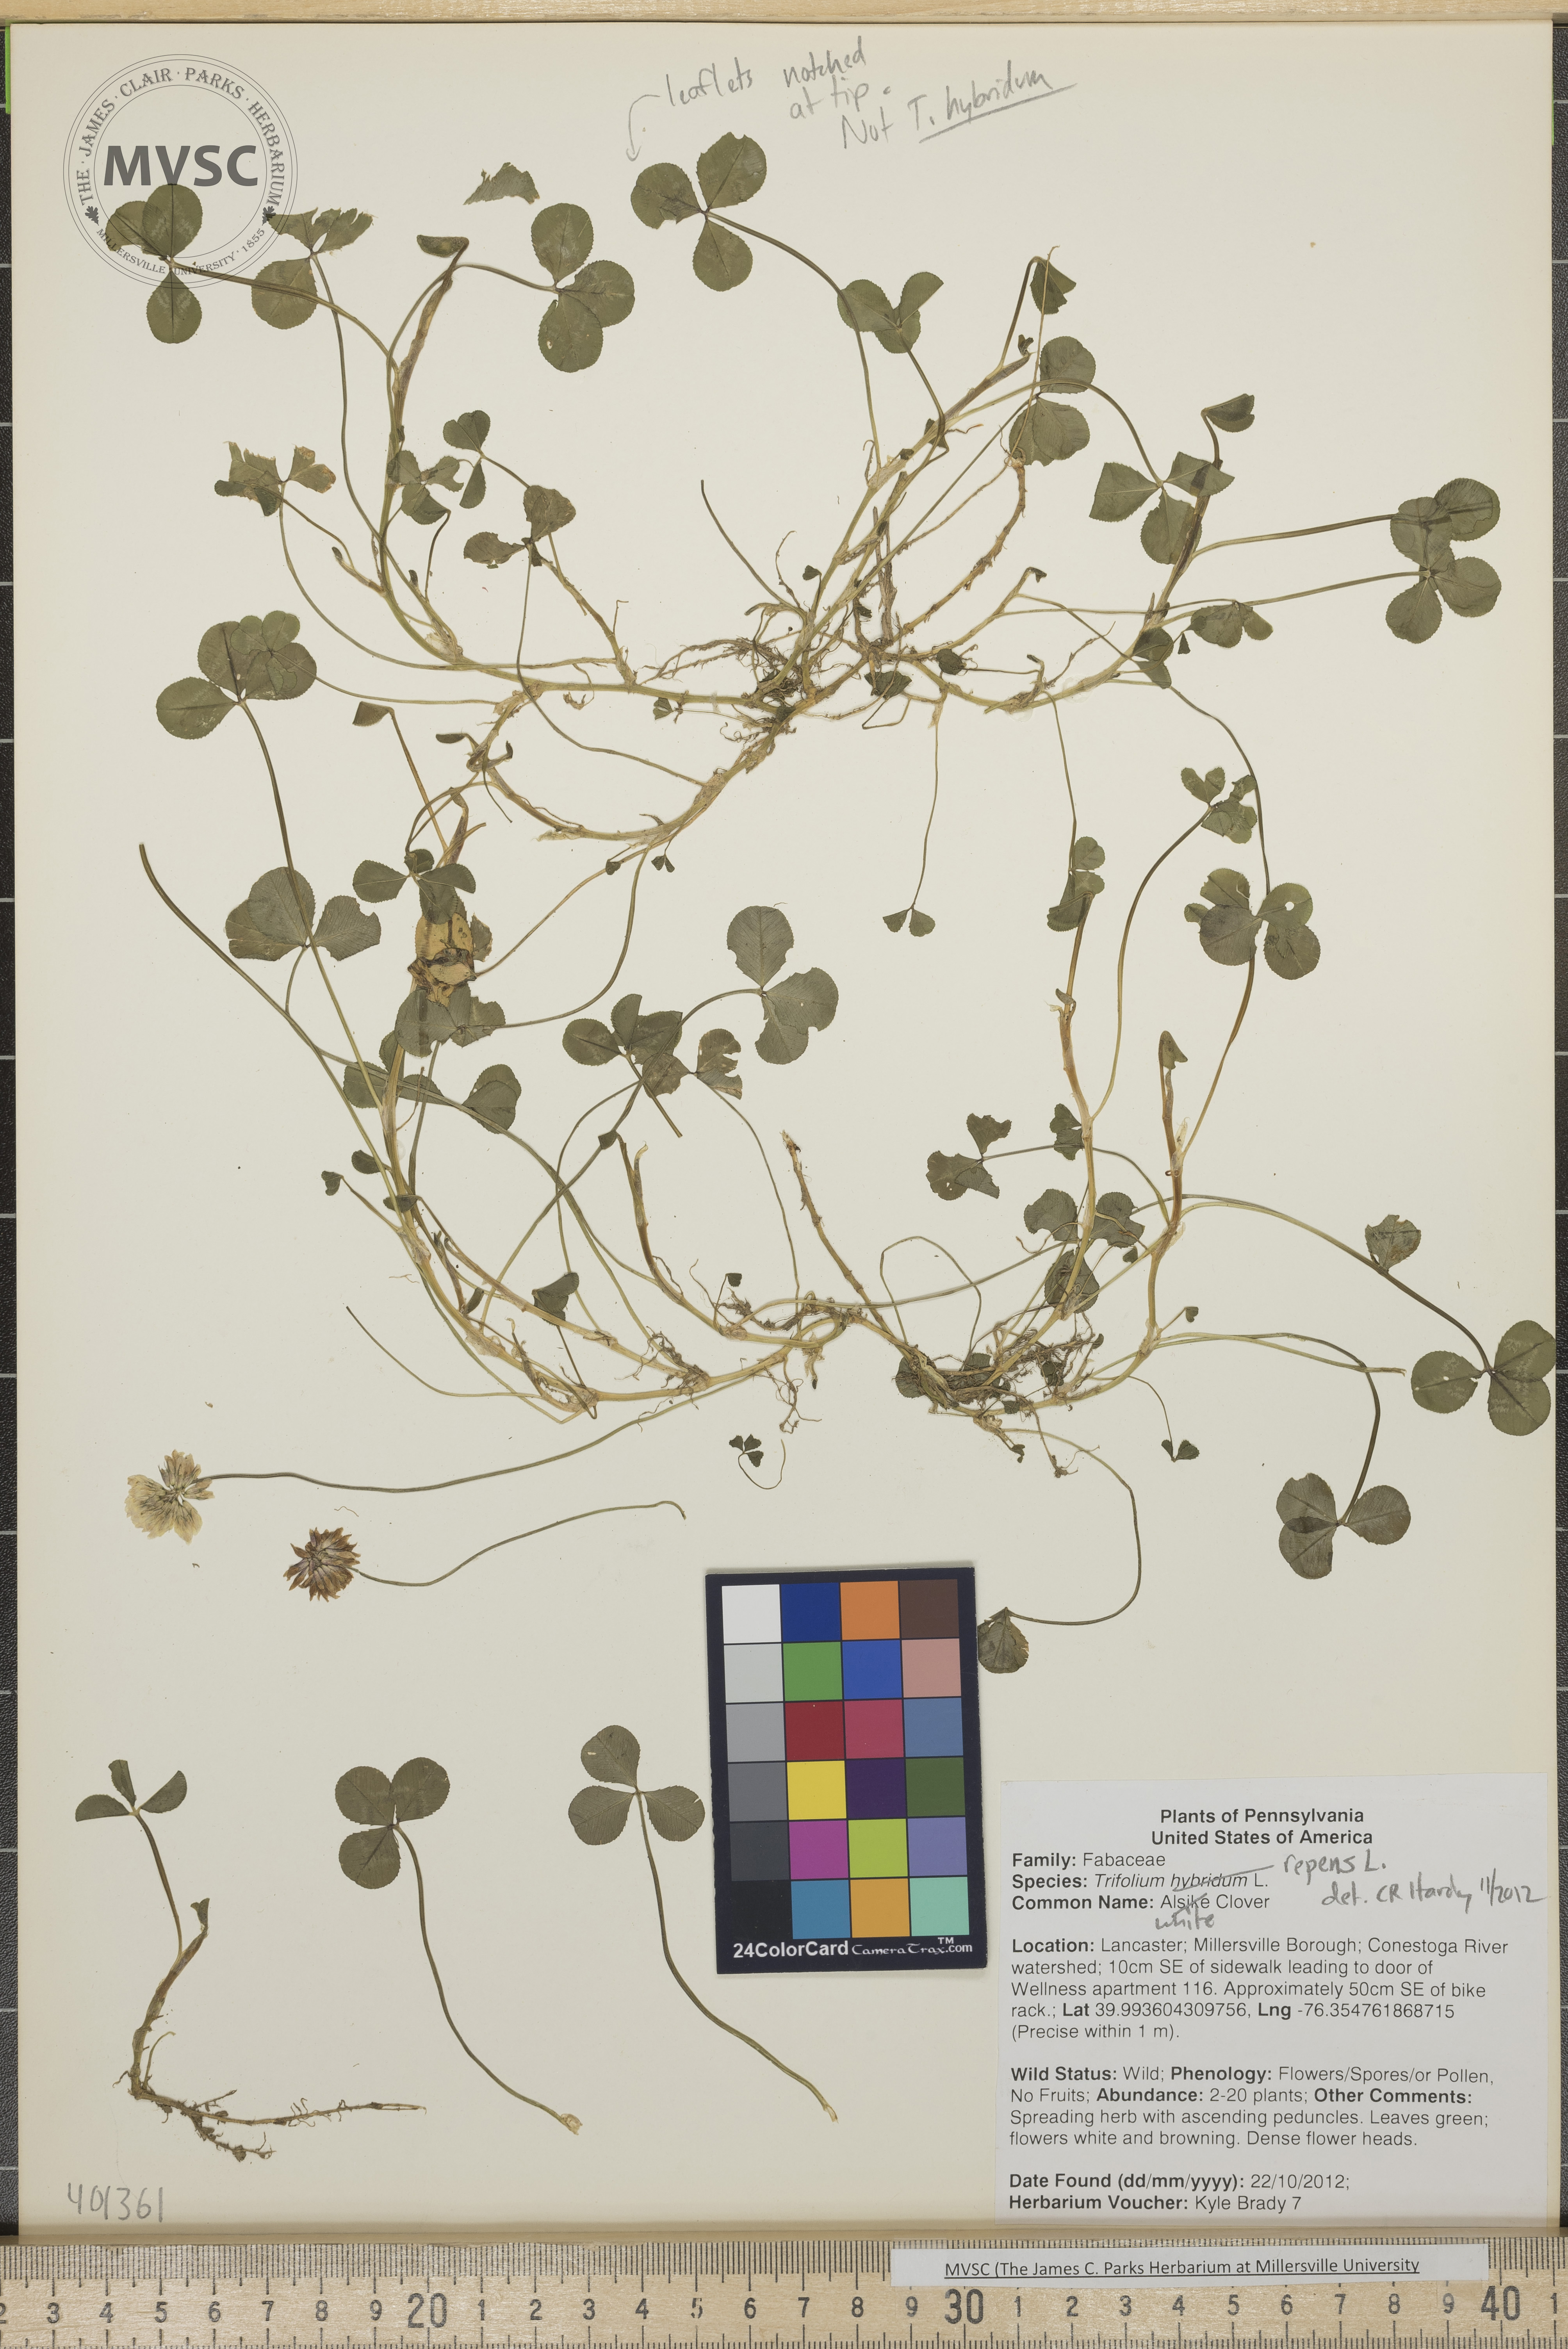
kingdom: Plantae
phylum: Tracheophyta
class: Magnoliopsida
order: Fabales
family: Fabaceae
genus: Trifolium
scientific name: Trifolium repens
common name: White Clover
